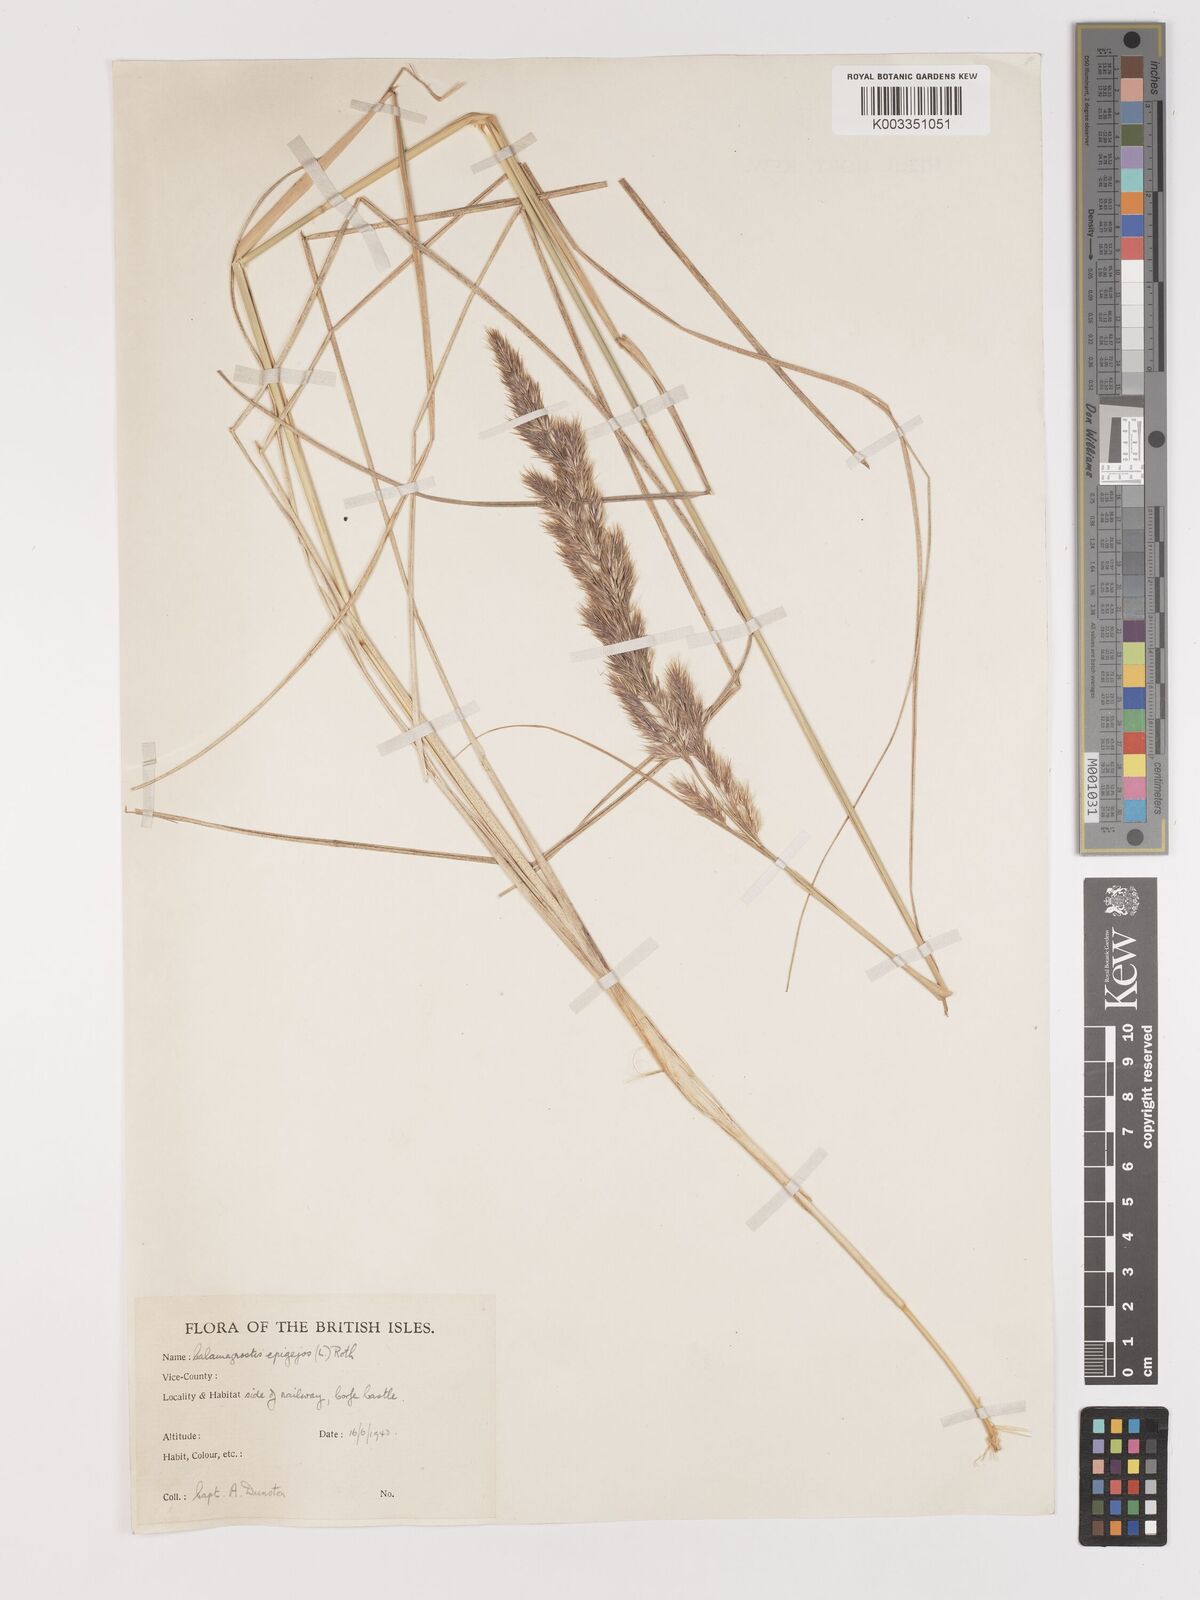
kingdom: Plantae
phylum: Tracheophyta
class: Liliopsida
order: Poales
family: Poaceae
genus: Calamagrostis
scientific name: Calamagrostis epigejos
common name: Wood small-reed
